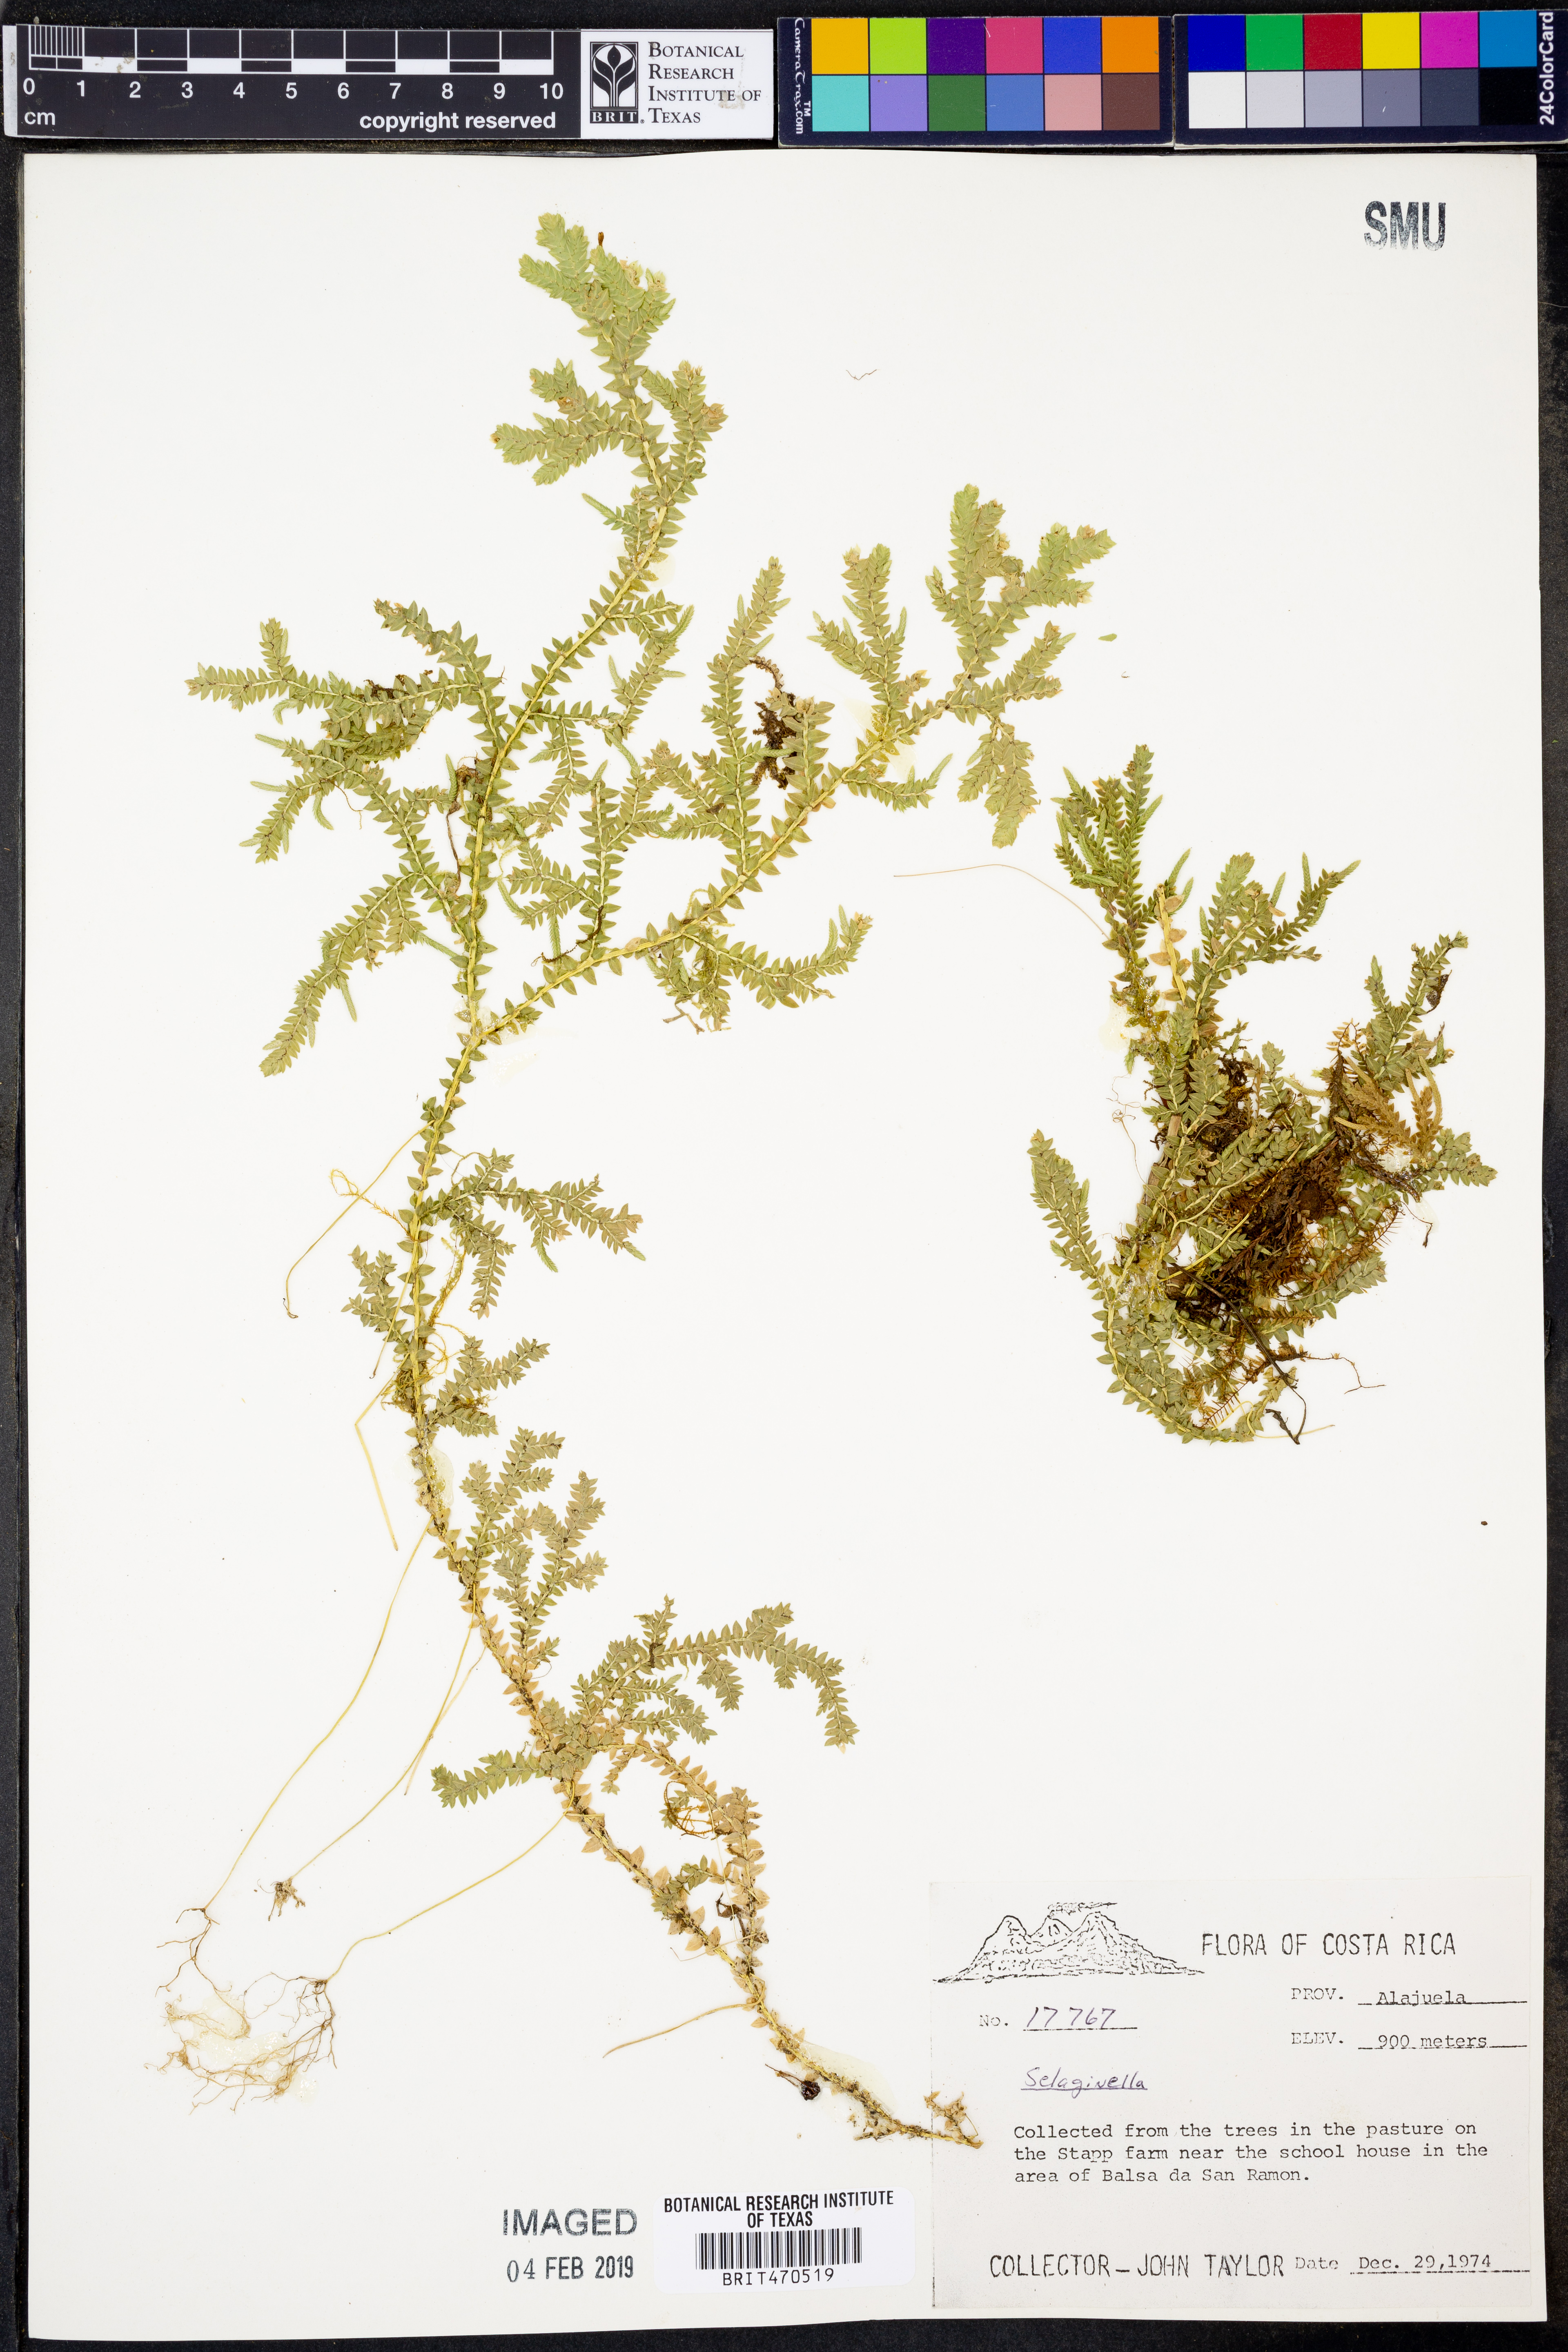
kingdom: Plantae
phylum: Tracheophyta
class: Lycopodiopsida
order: Selaginellales
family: Selaginellaceae
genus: Selaginella
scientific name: Selaginella
